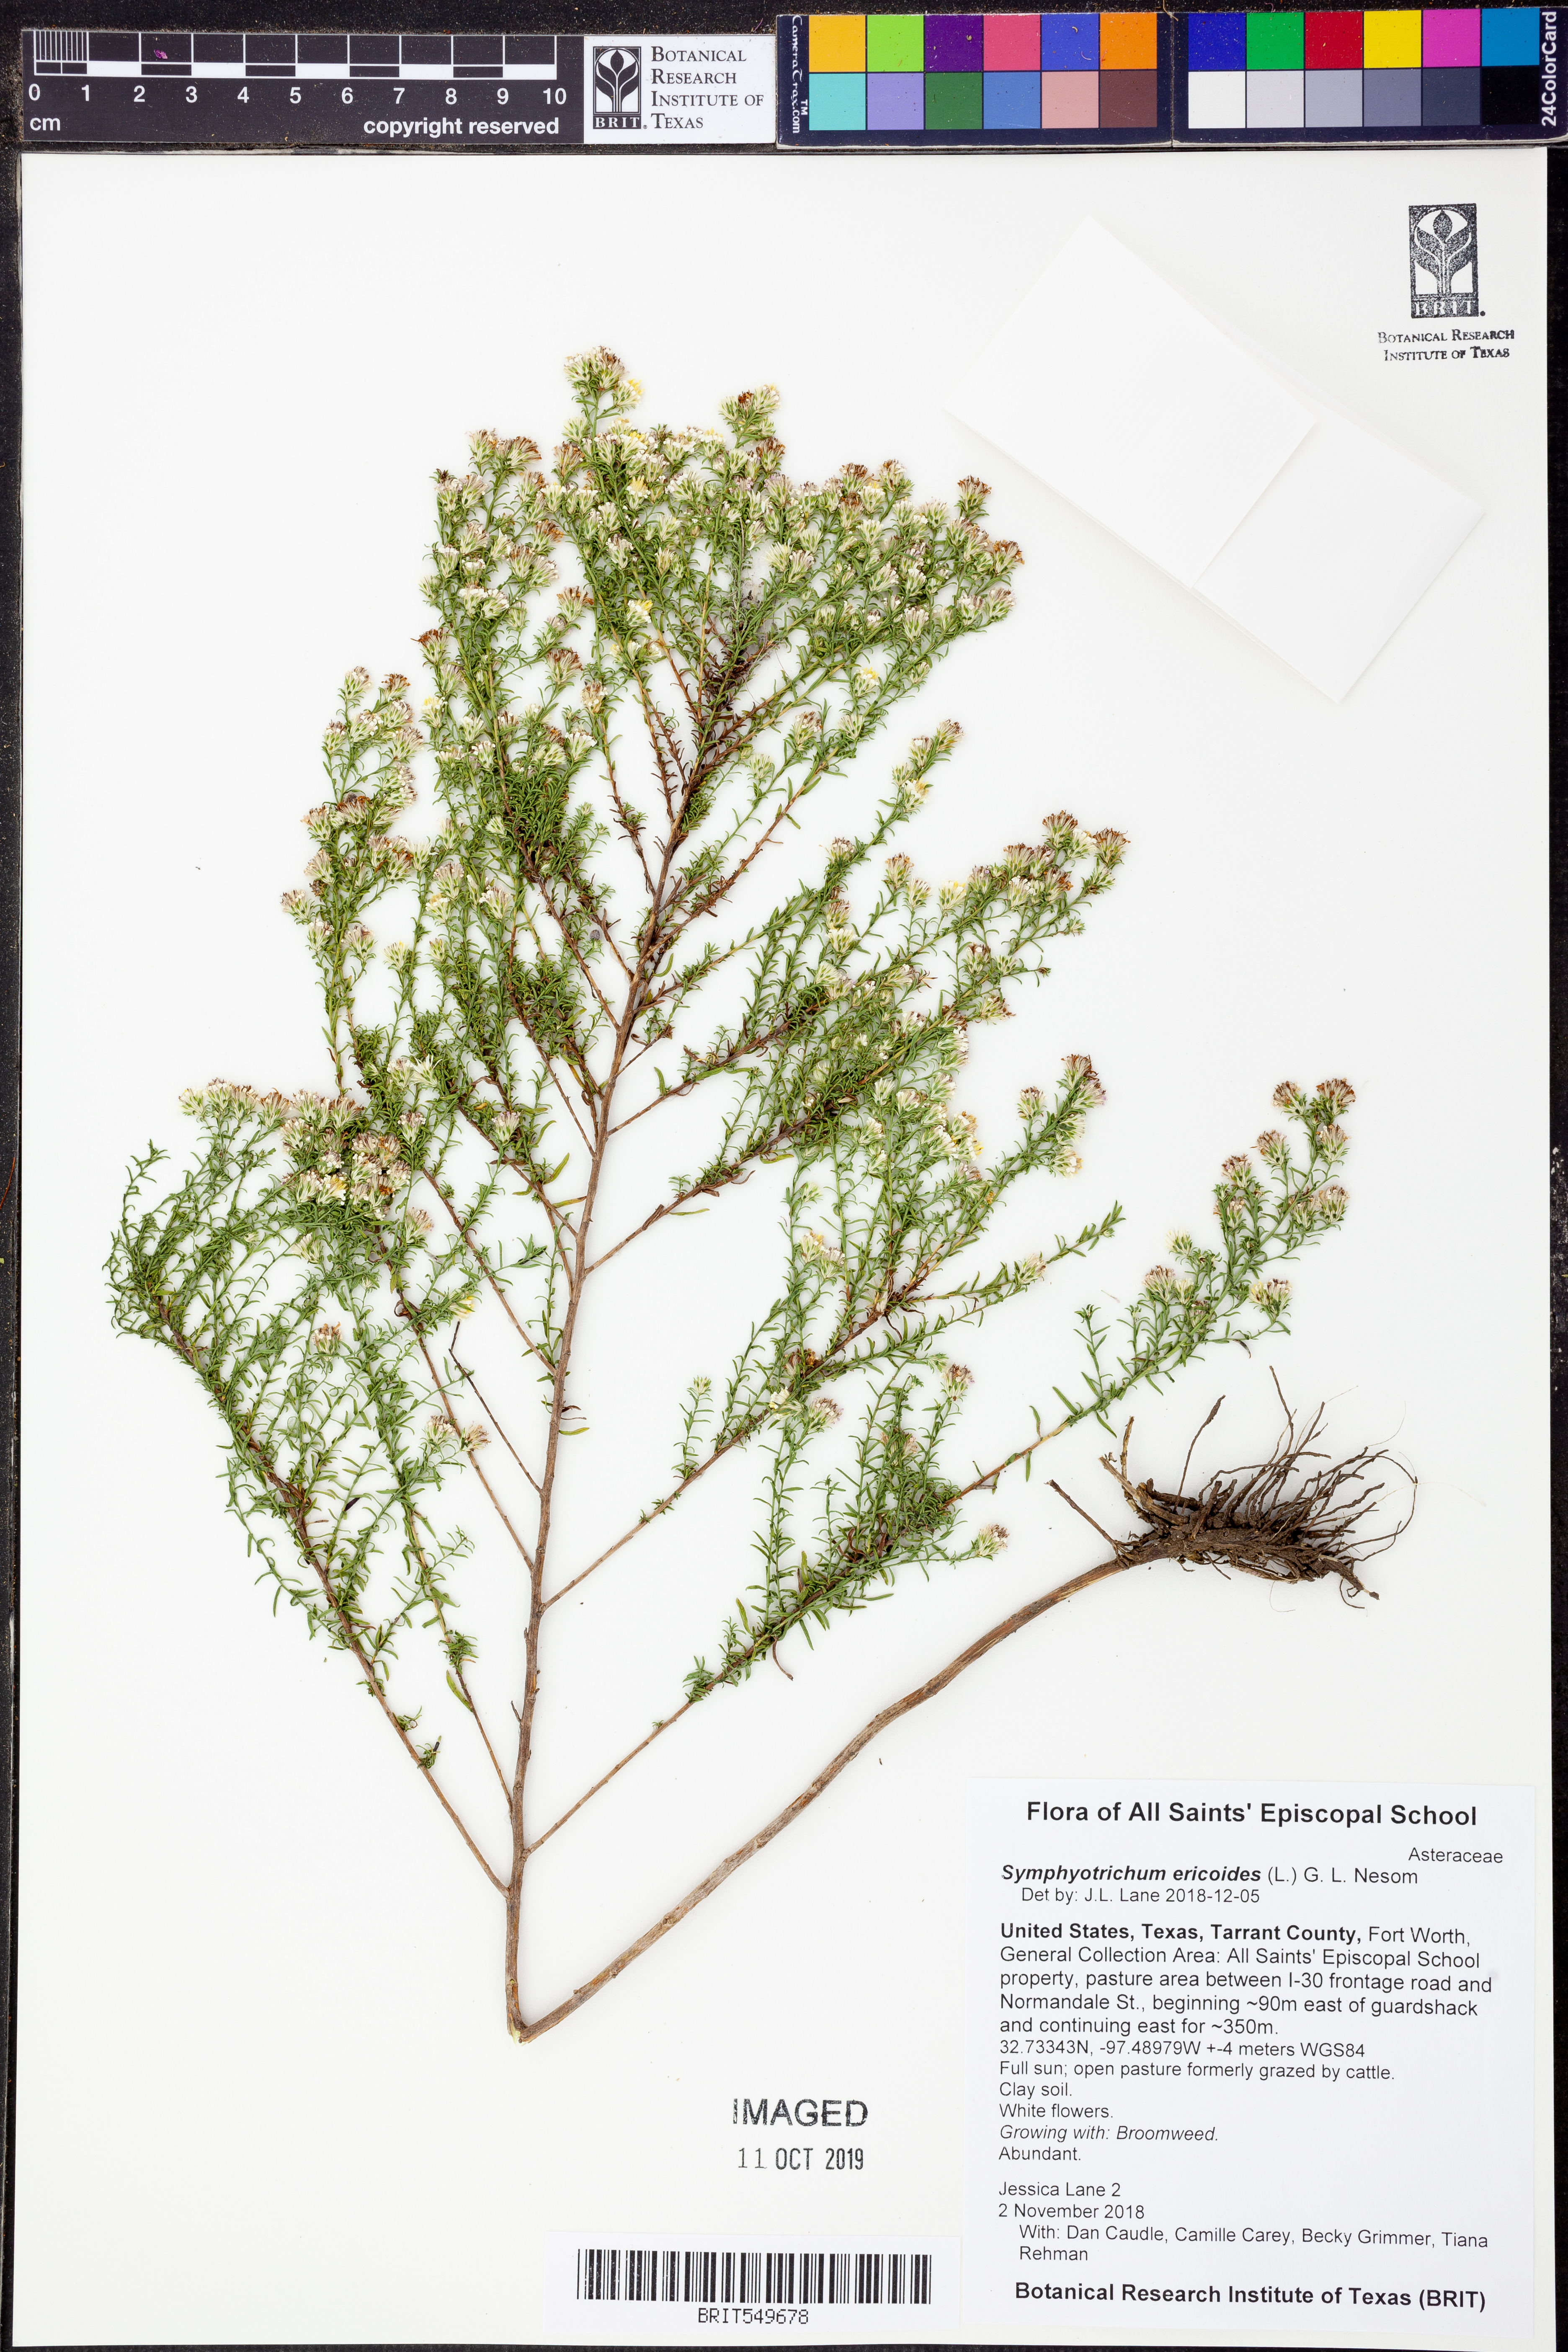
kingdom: Plantae
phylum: Tracheophyta
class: Magnoliopsida
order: Asterales
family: Asteraceae
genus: Symphyotrichum
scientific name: Symphyotrichum ericoides
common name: Heath aster
